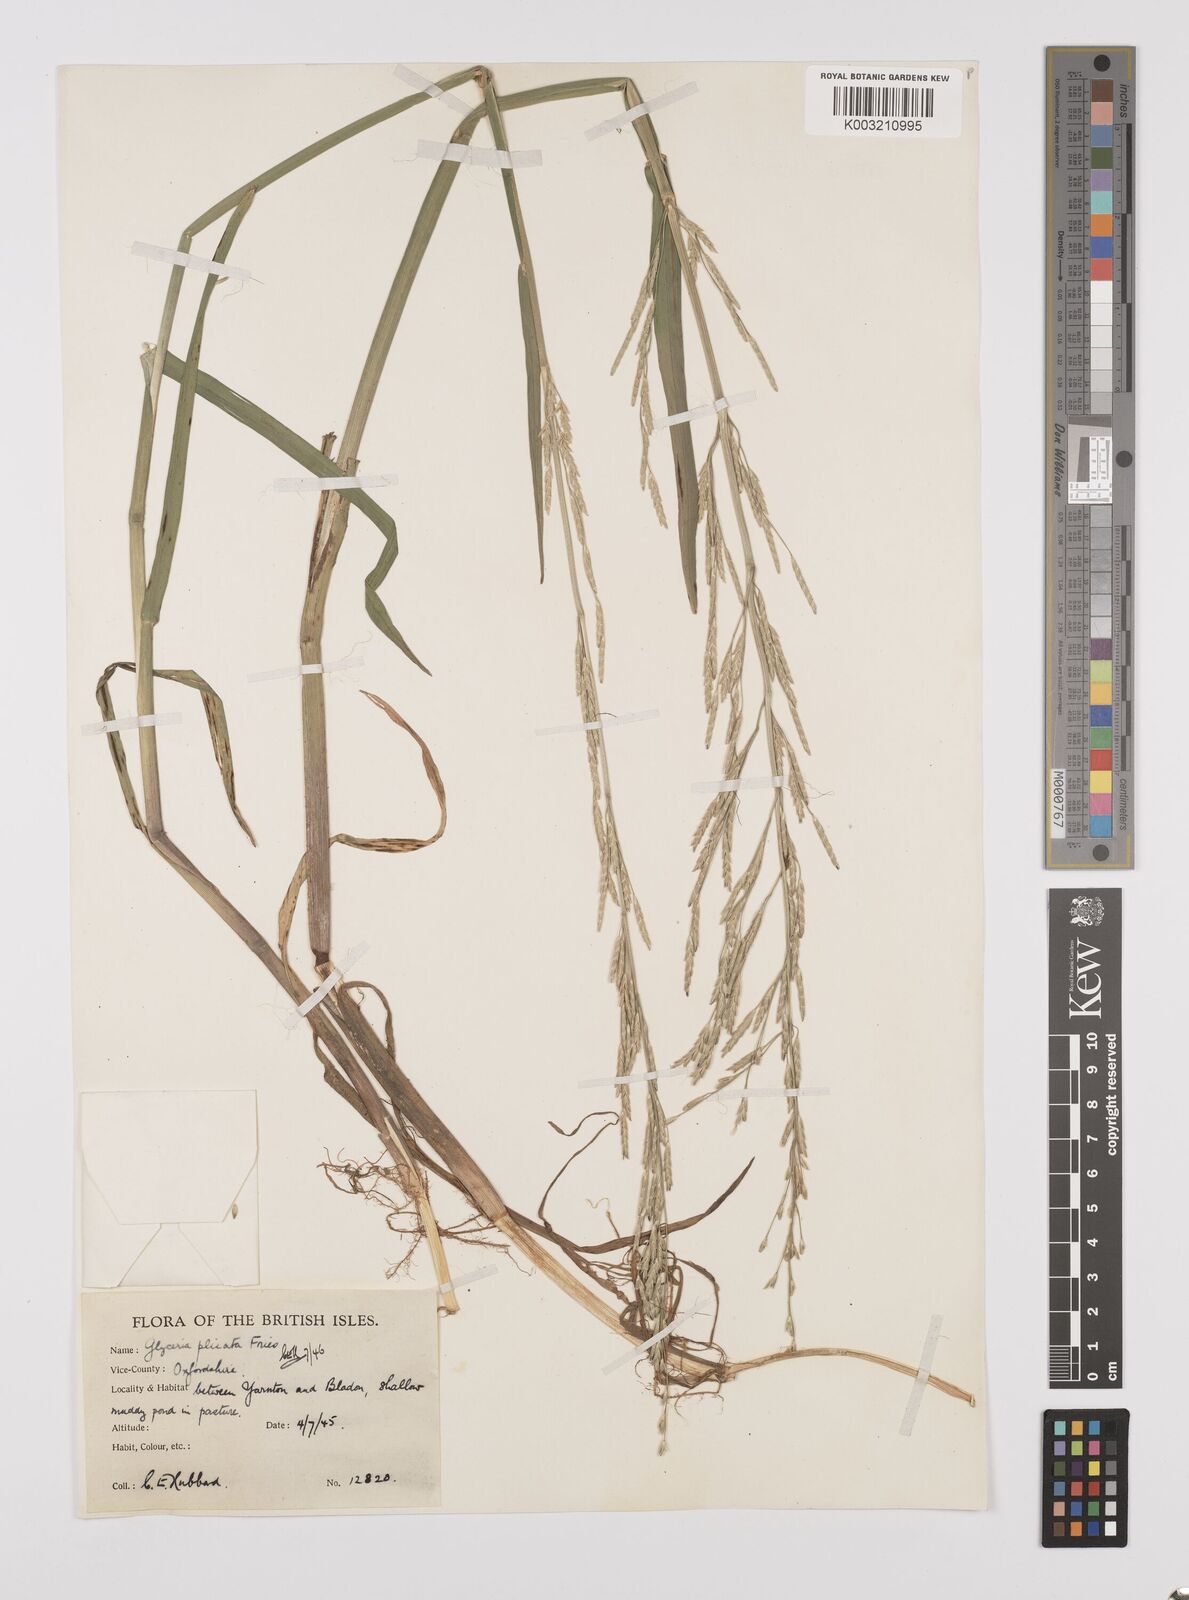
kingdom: Plantae
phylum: Tracheophyta
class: Liliopsida
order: Poales
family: Poaceae
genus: Glyceria
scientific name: Glyceria notata
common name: Plicate sweet-grass
